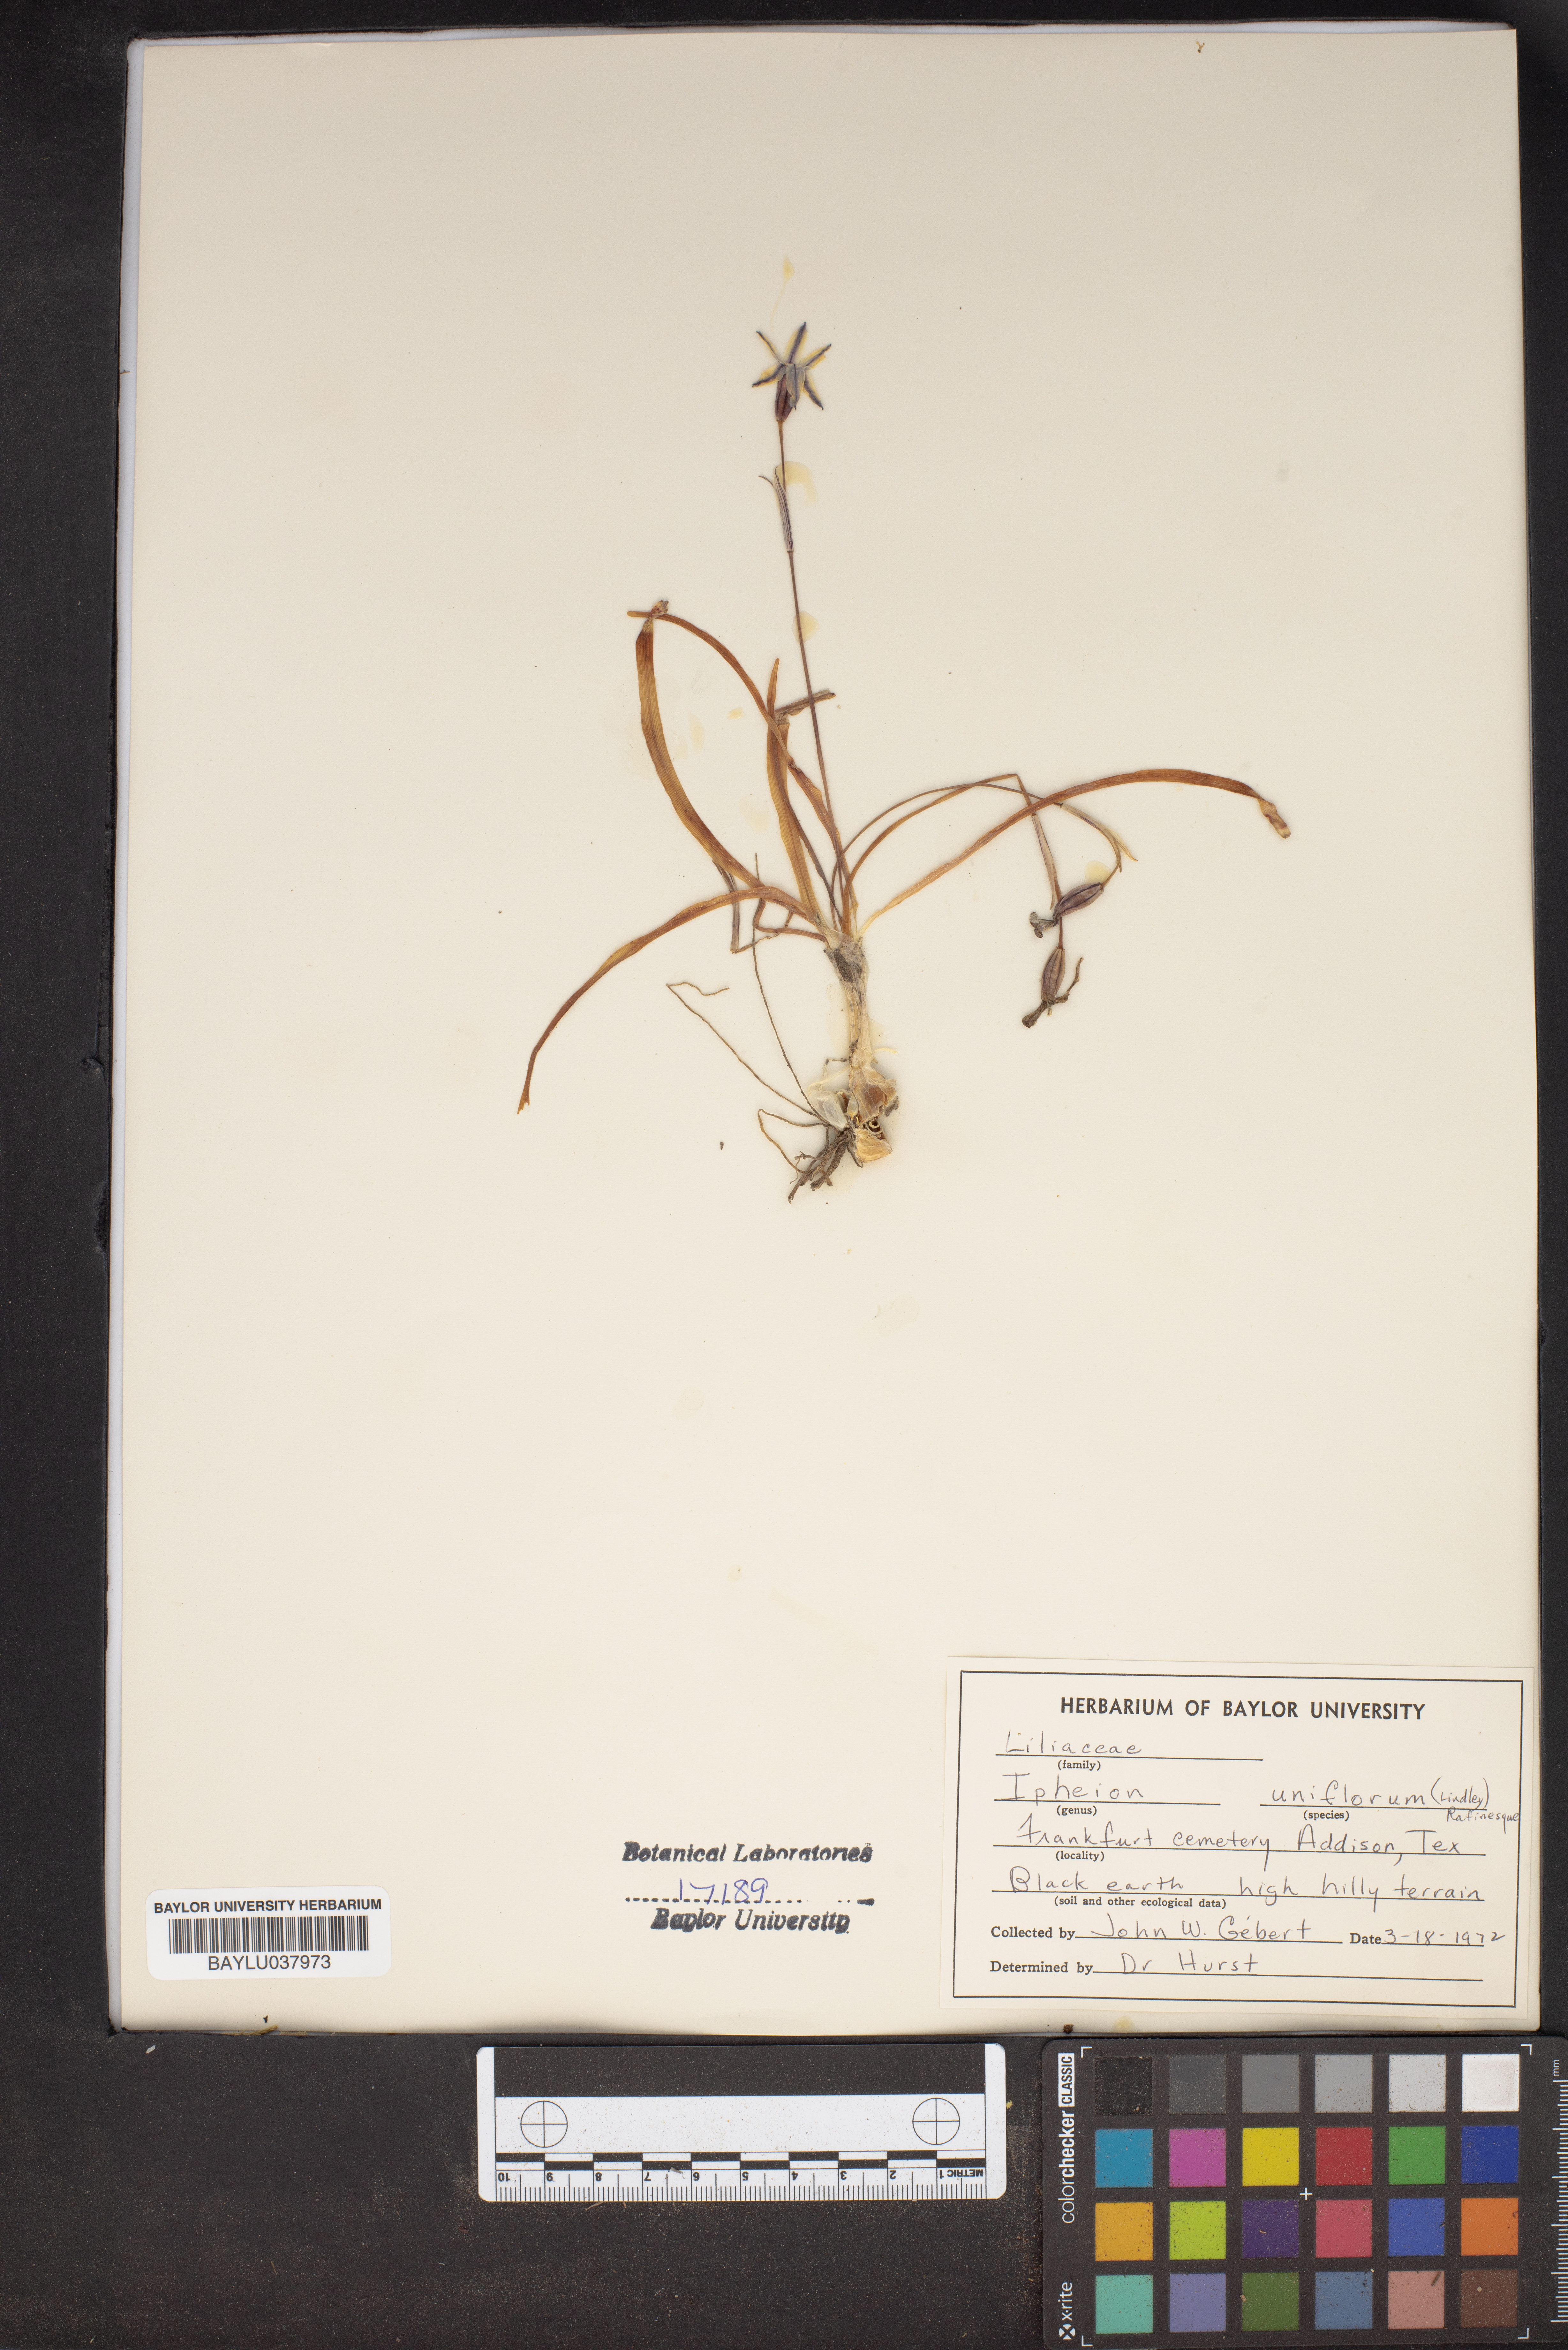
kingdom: Plantae
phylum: Tracheophyta
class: Liliopsida
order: Asparagales
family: Amaryllidaceae
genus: Ipheion
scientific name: Ipheion uniflorum
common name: Spring starflower
